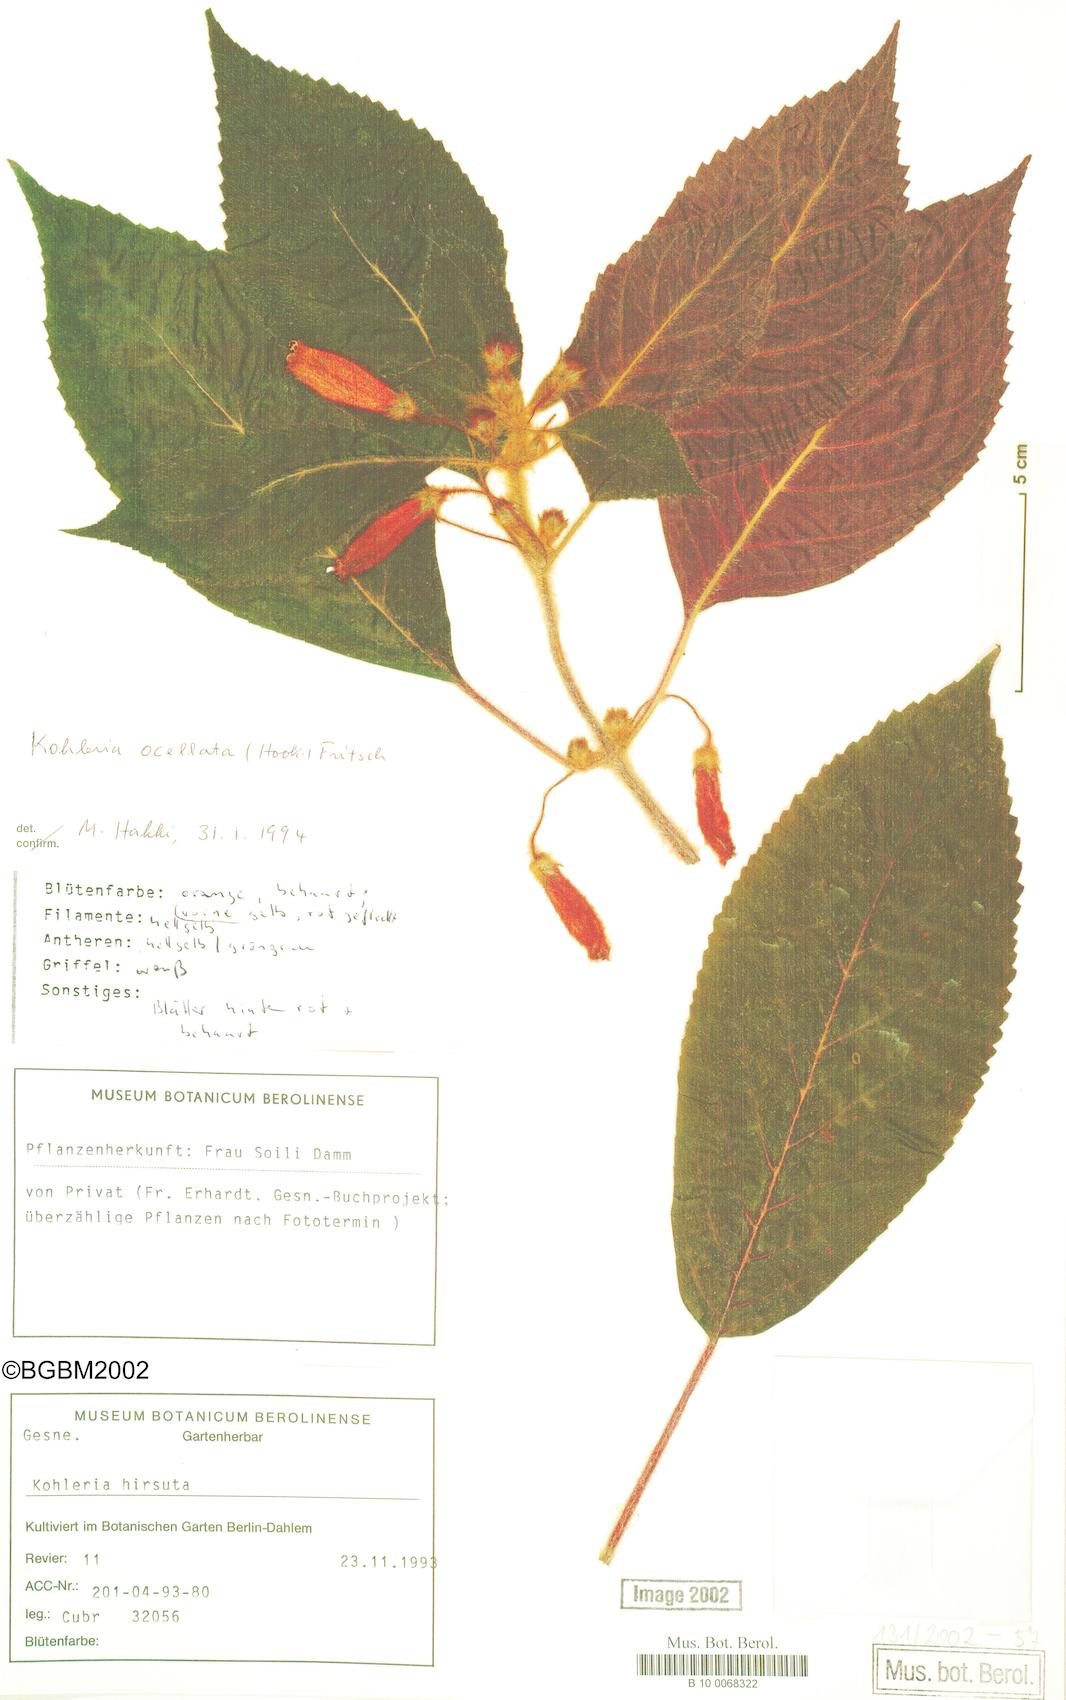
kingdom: Plantae
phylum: Tracheophyta
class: Magnoliopsida
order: Lamiales
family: Gesneriaceae
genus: Kohleria
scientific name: Kohleria inaequalis
